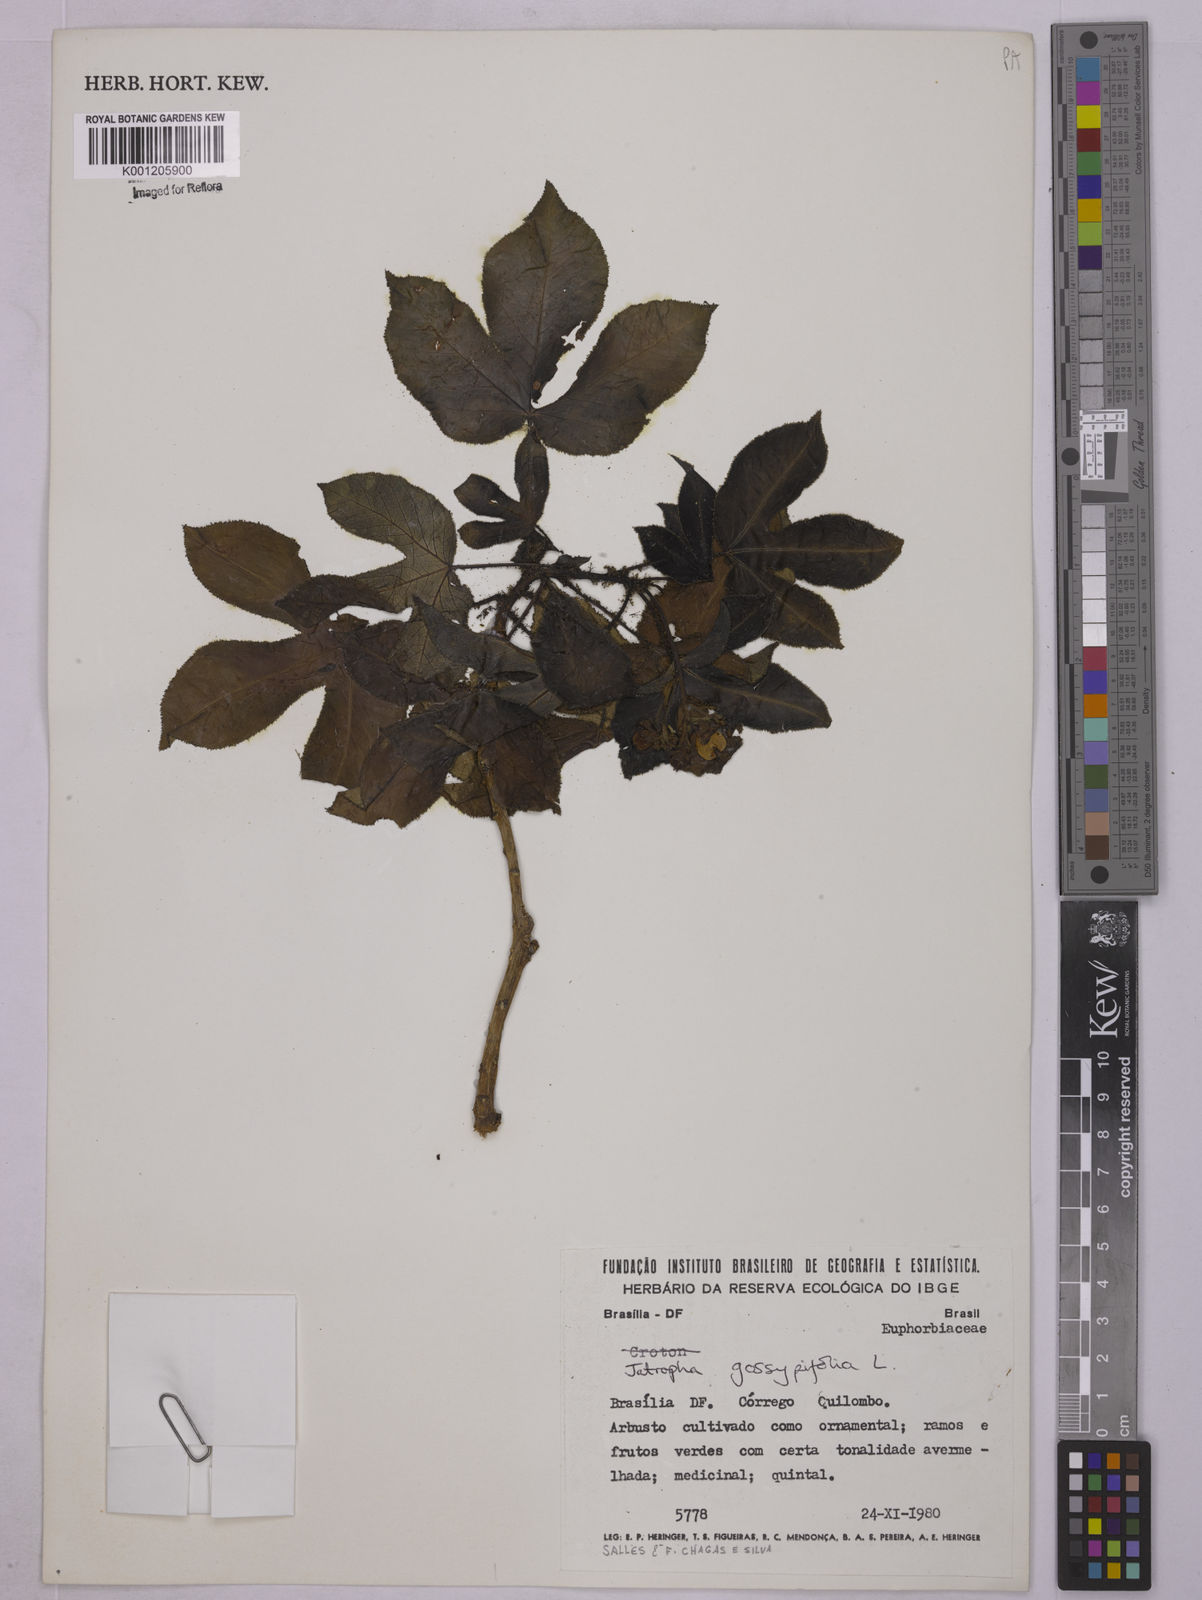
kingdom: Plantae
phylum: Tracheophyta
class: Magnoliopsida
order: Malpighiales
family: Euphorbiaceae
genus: Jatropha
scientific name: Jatropha gossypiifolia
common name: Bellyache bush
